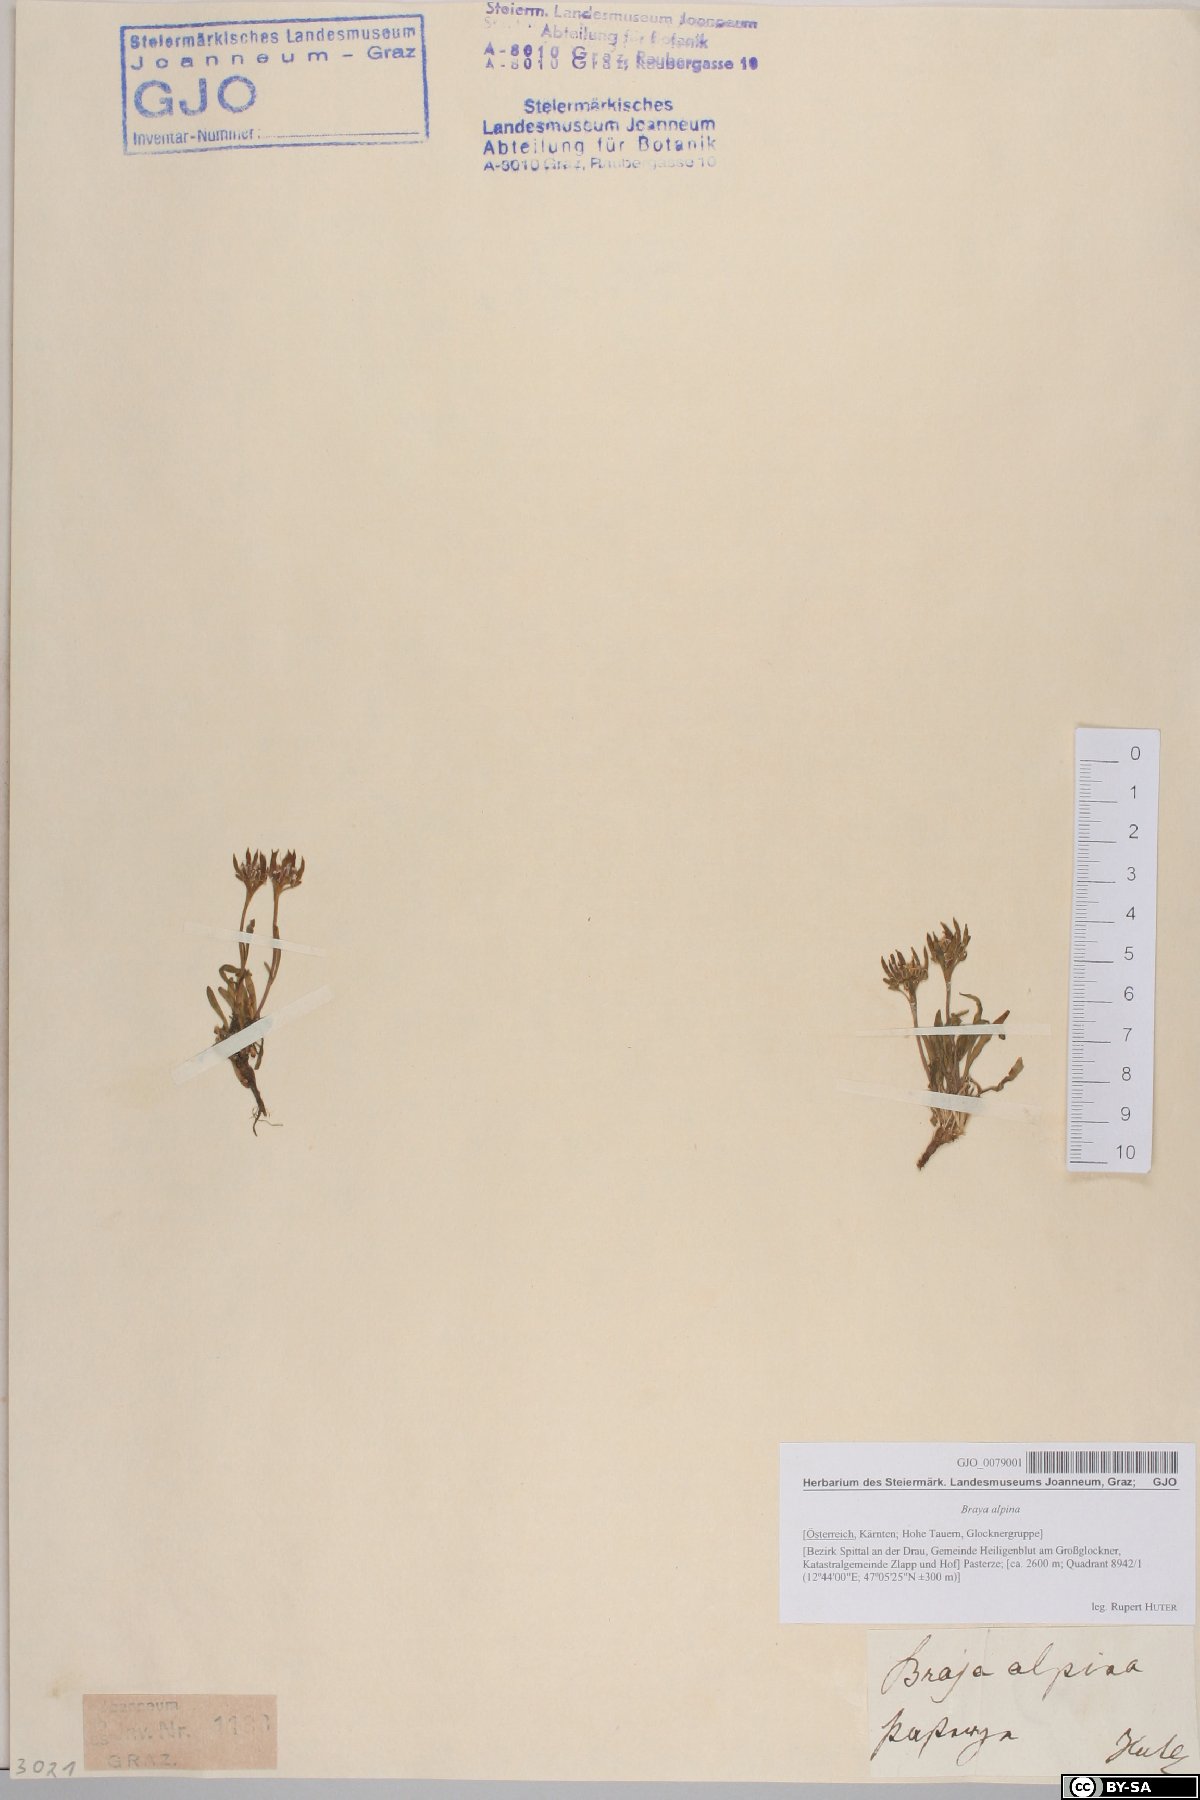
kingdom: Plantae
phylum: Tracheophyta
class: Magnoliopsida
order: Brassicales
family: Brassicaceae
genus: Braya
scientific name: Braya alpina
